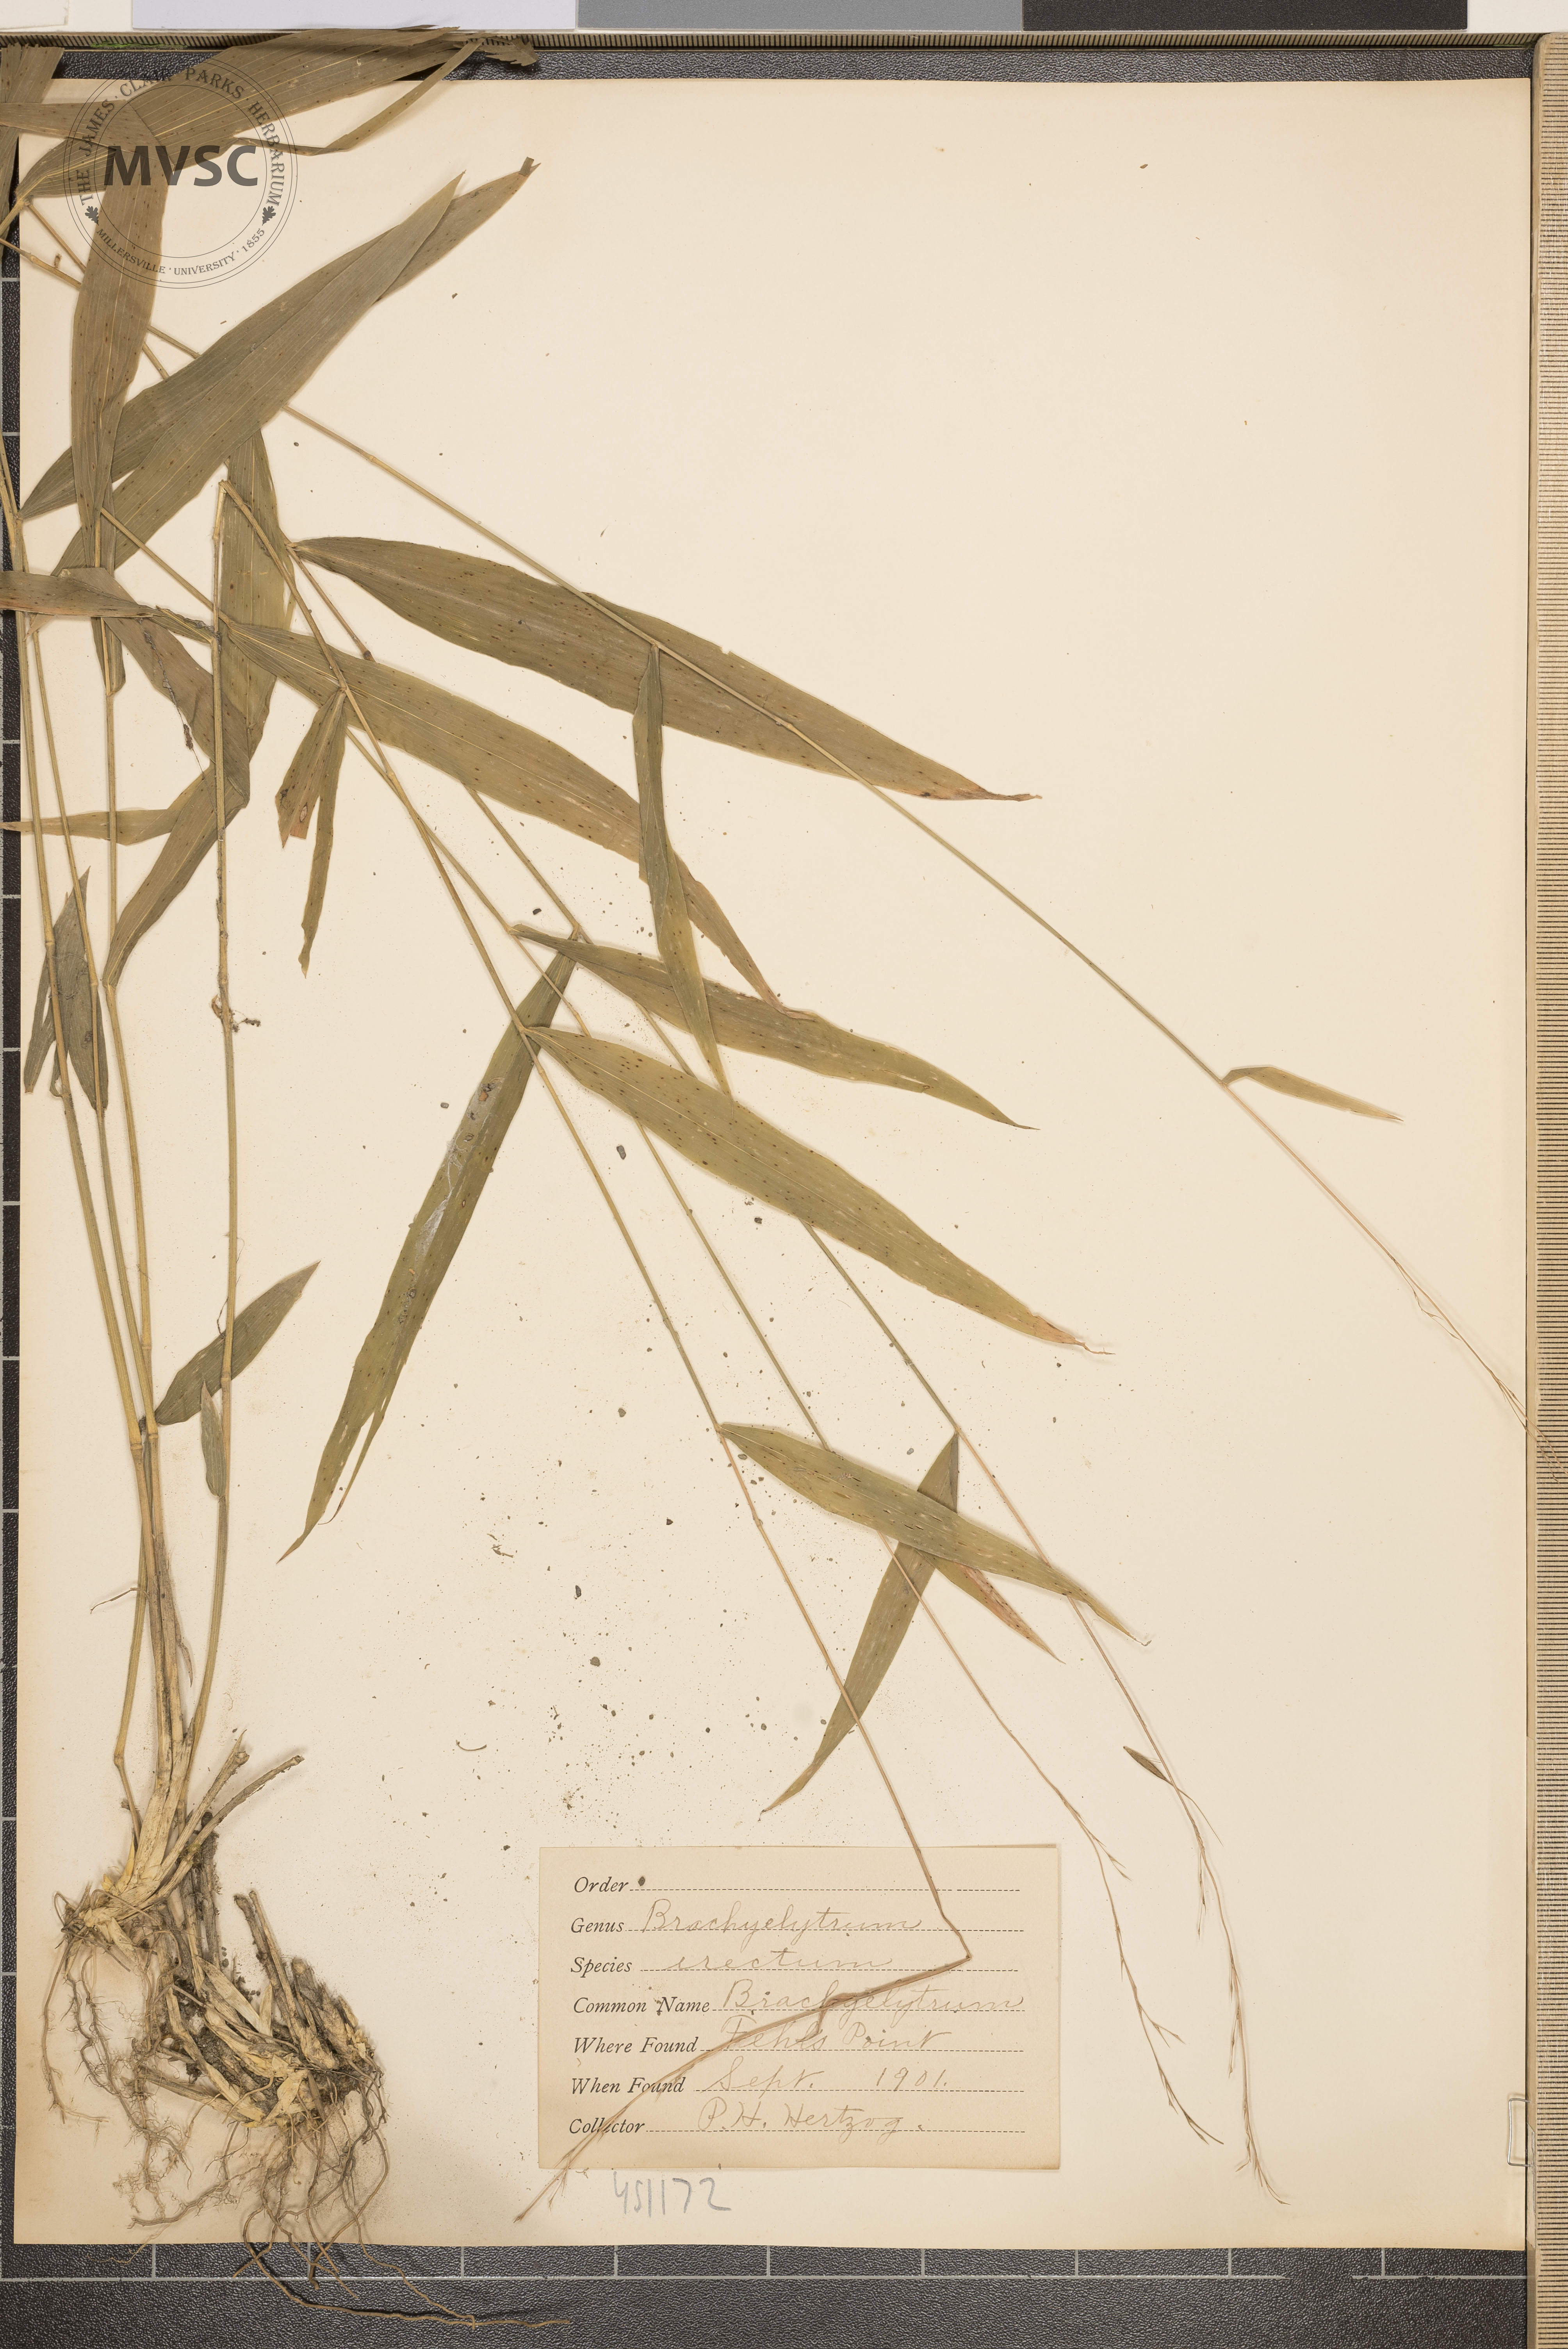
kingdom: Plantae
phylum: Tracheophyta
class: Liliopsida
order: Poales
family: Poaceae
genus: Brachyelytrum
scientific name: Brachyelytrum erectum
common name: Bearded shorthusk
